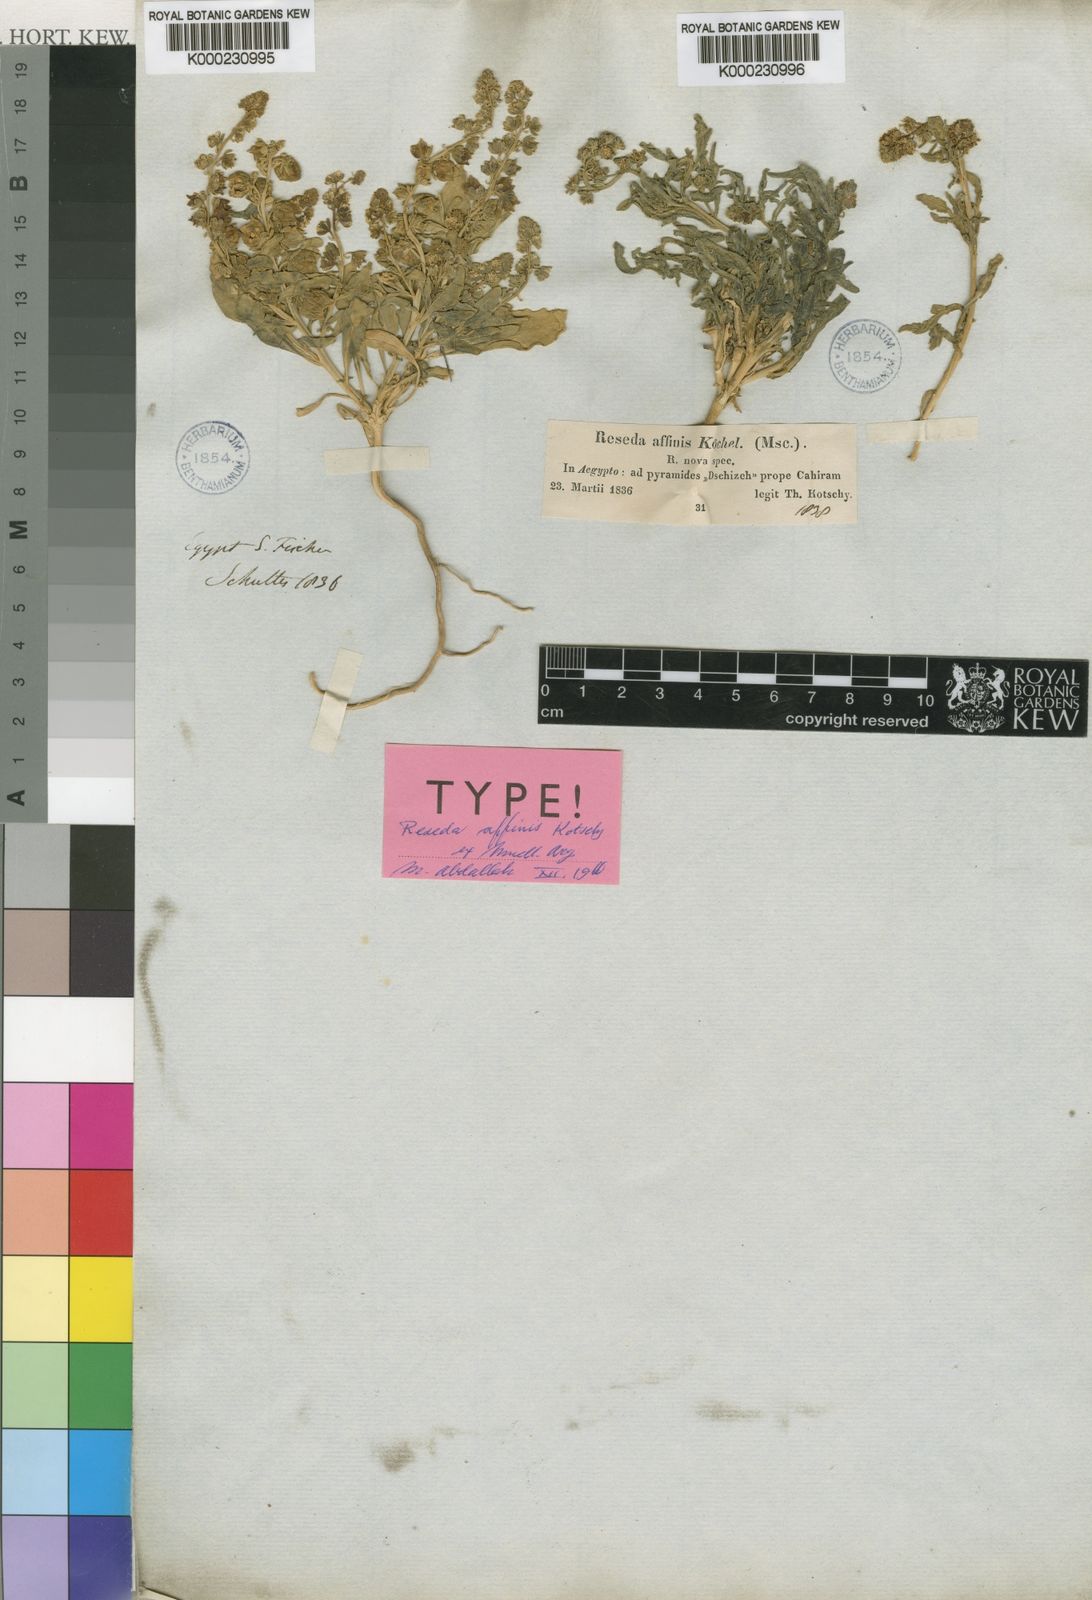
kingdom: Plantae
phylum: Tracheophyta
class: Magnoliopsida
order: Brassicales
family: Resedaceae
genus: Reseda
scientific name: Reseda arabica
